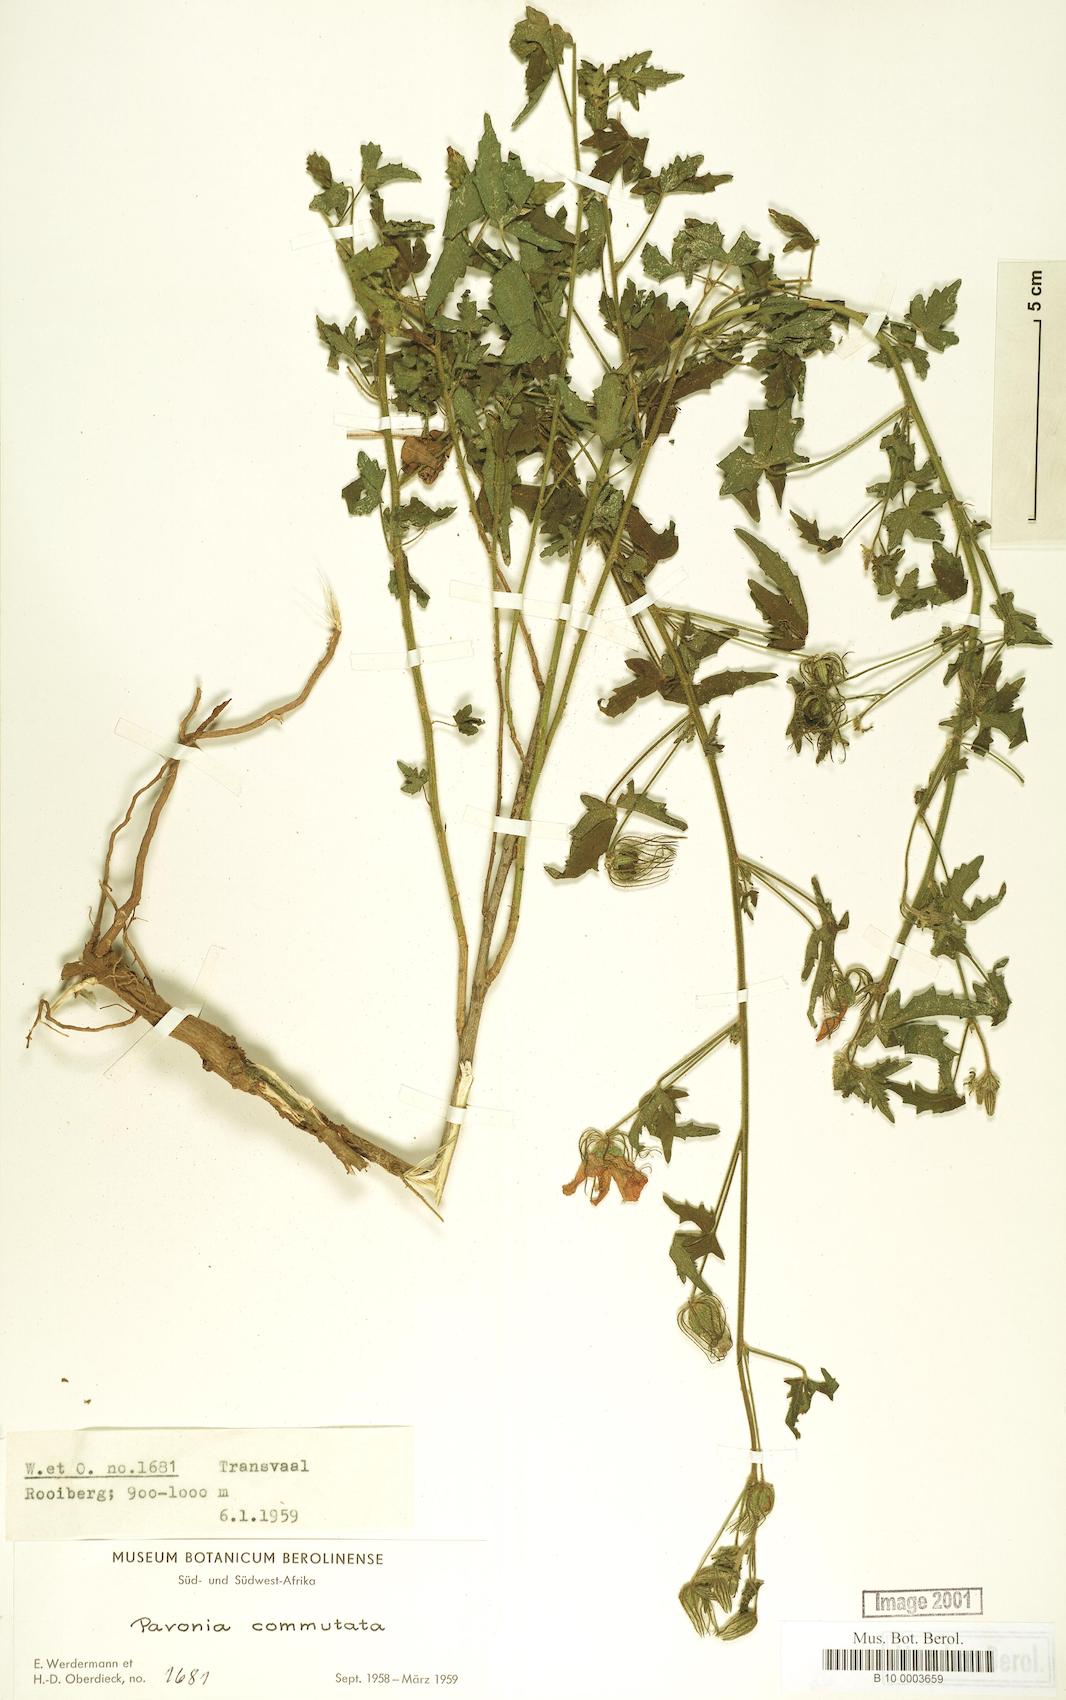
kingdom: Plantae
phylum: Tracheophyta
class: Magnoliopsida
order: Malvales
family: Malvaceae
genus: Pavonia
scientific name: Pavonia commutata
